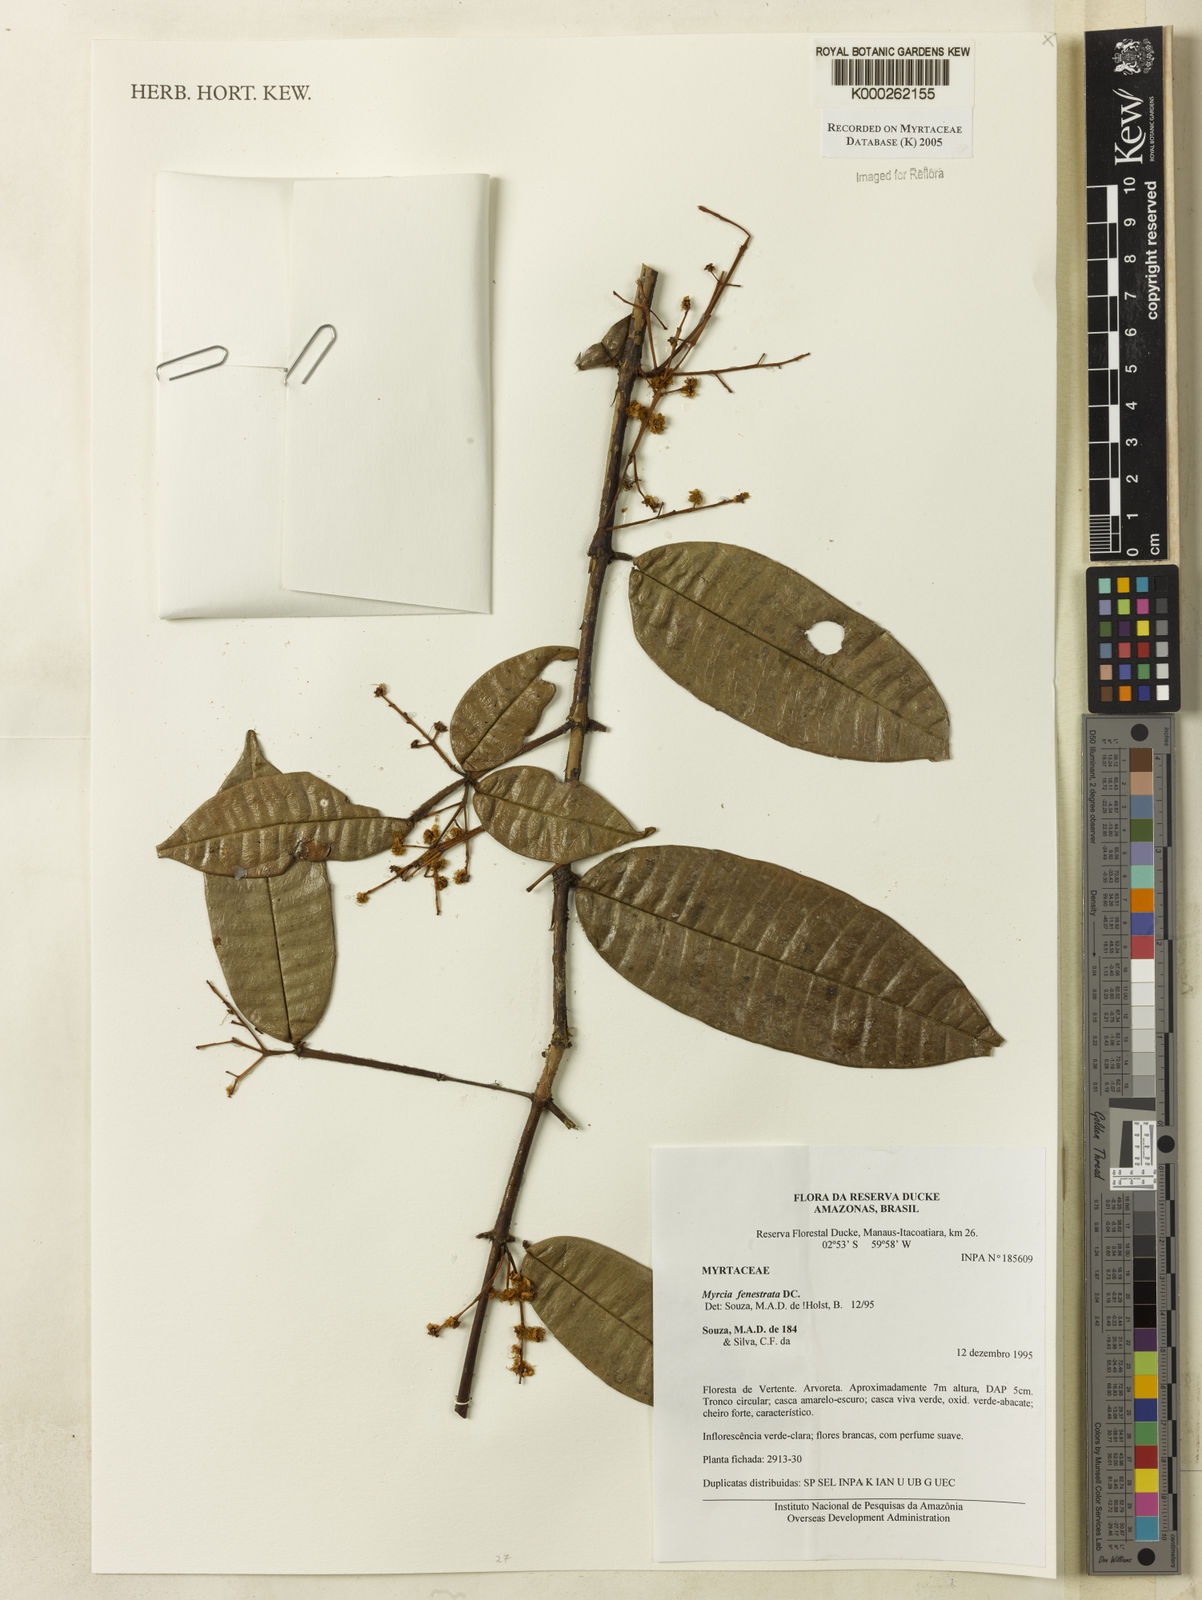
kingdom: Plantae
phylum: Tracheophyta
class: Magnoliopsida
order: Myrtales
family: Myrtaceae
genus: Myrcia
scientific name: Myrcia fenestrata
